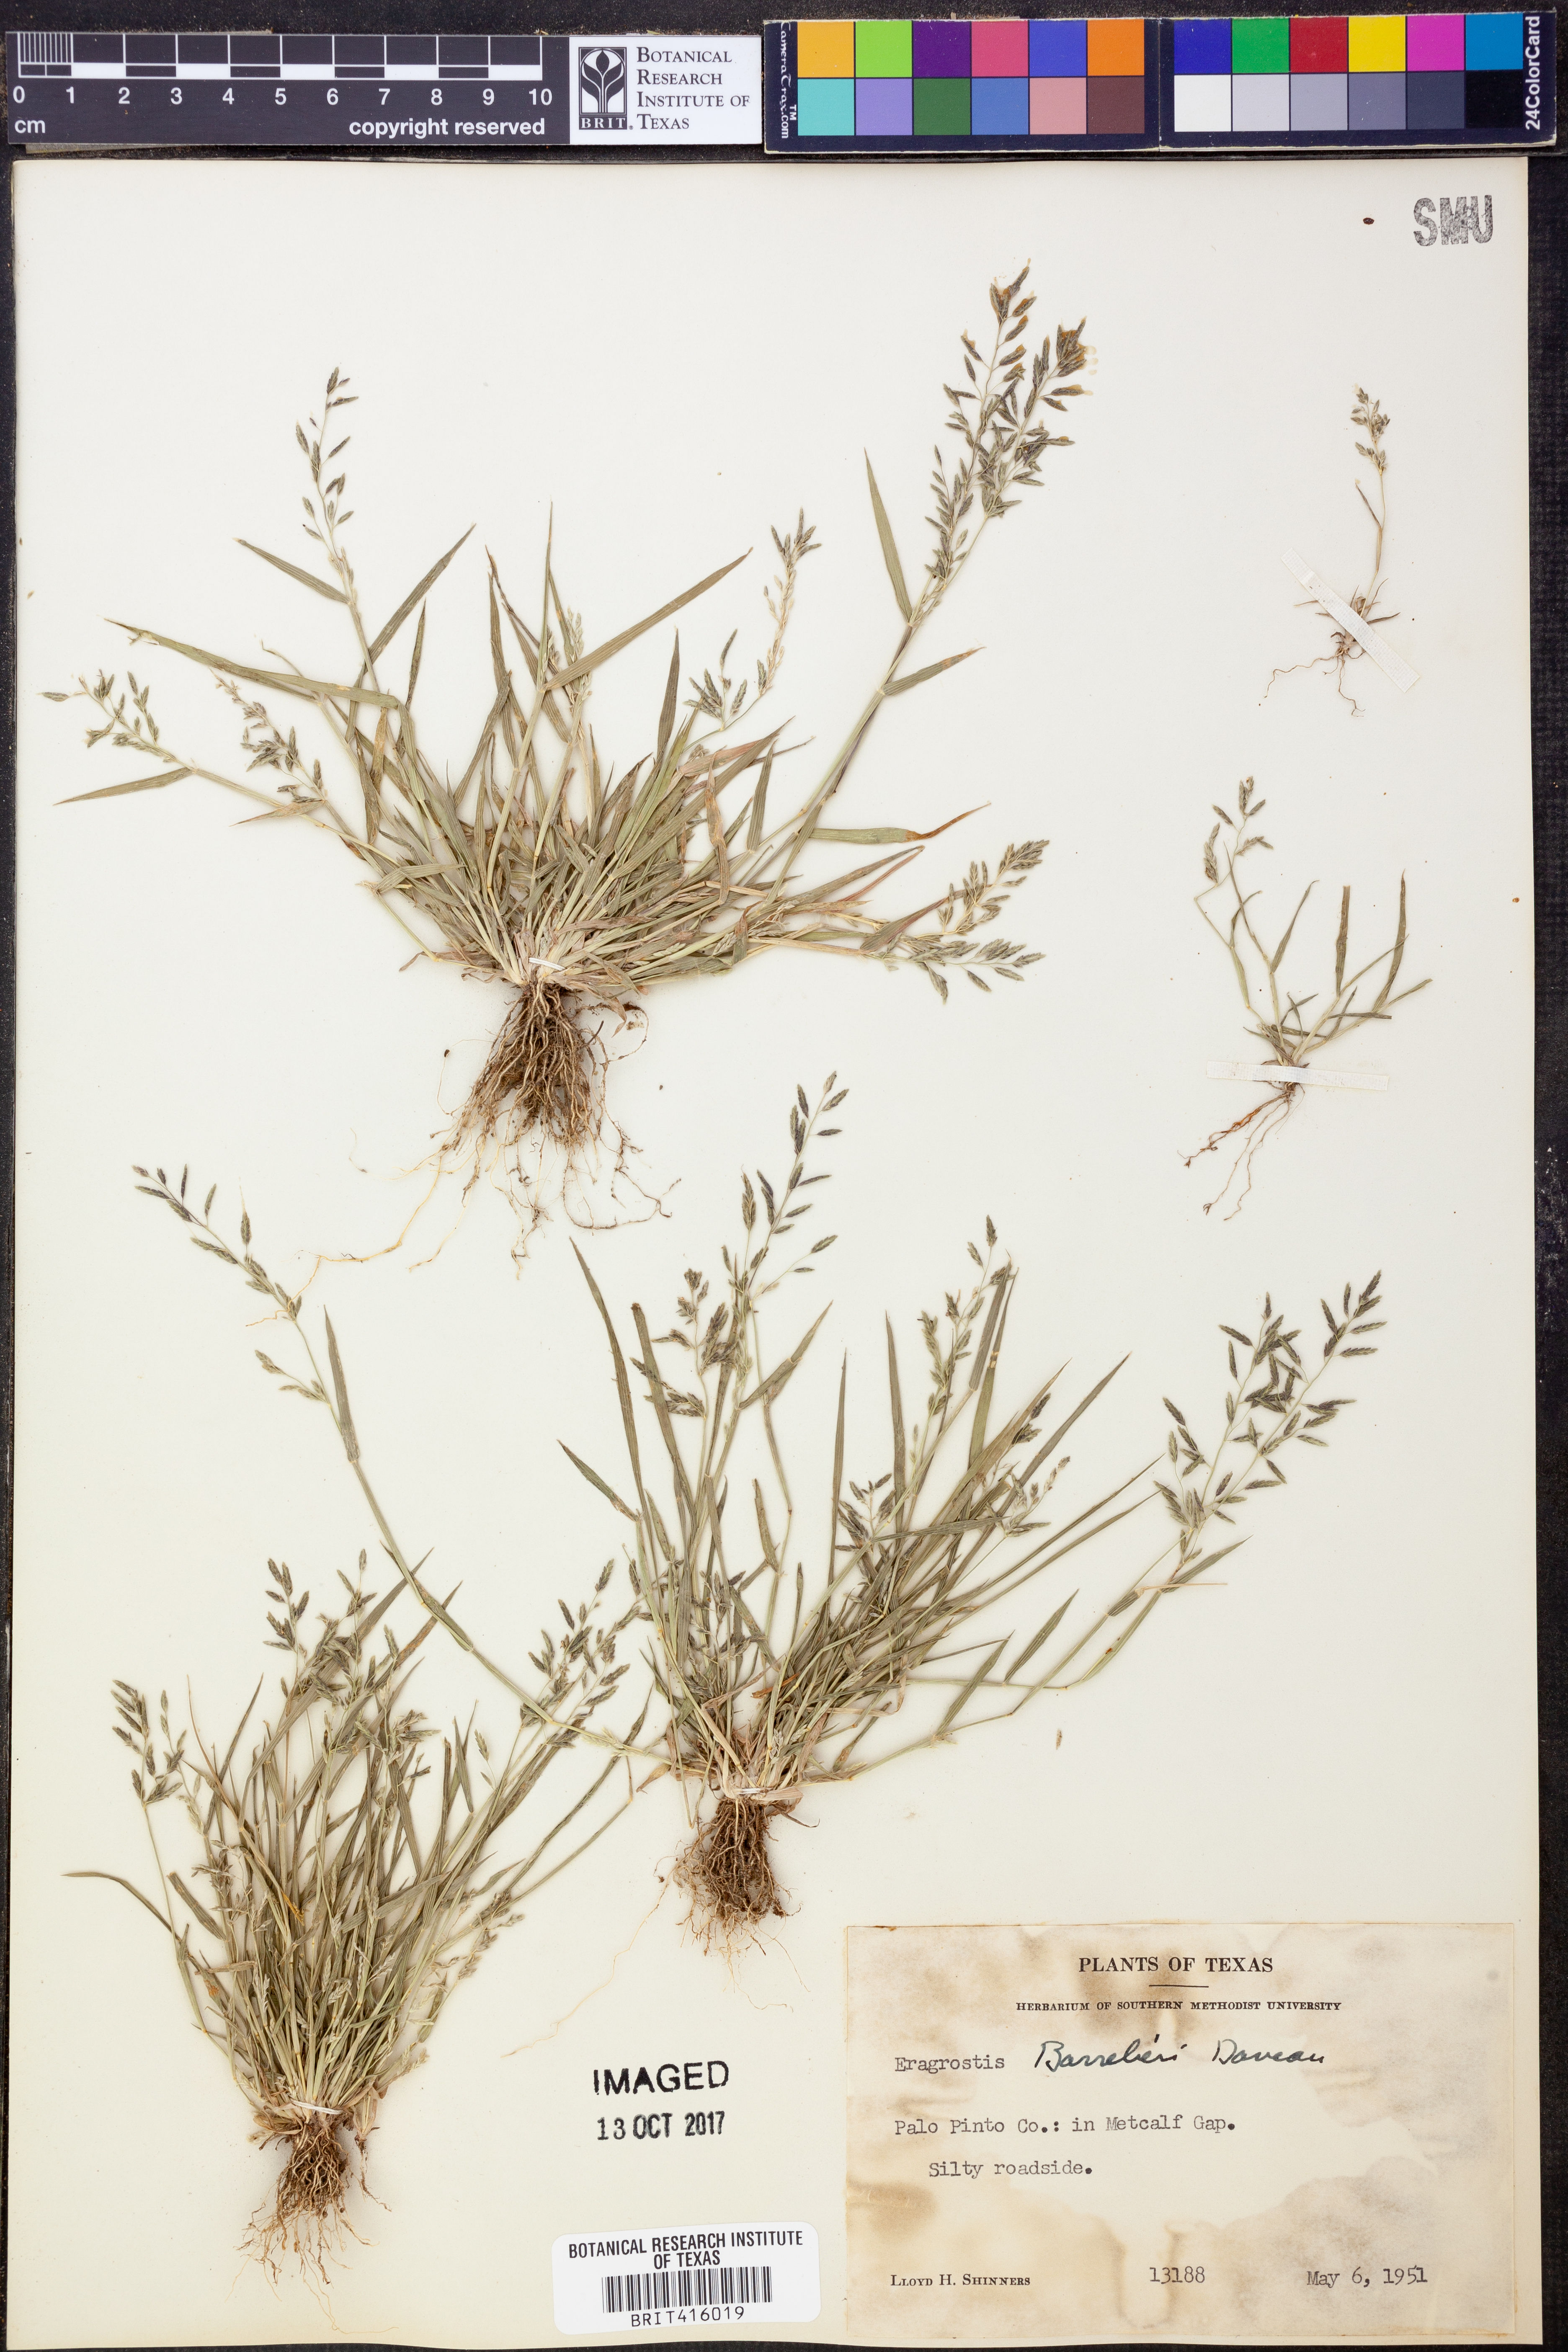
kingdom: Plantae
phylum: Tracheophyta
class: Liliopsida
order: Poales
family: Poaceae
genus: Eragrostis
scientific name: Eragrostis barrelieri
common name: Mediterranean lovegrass
